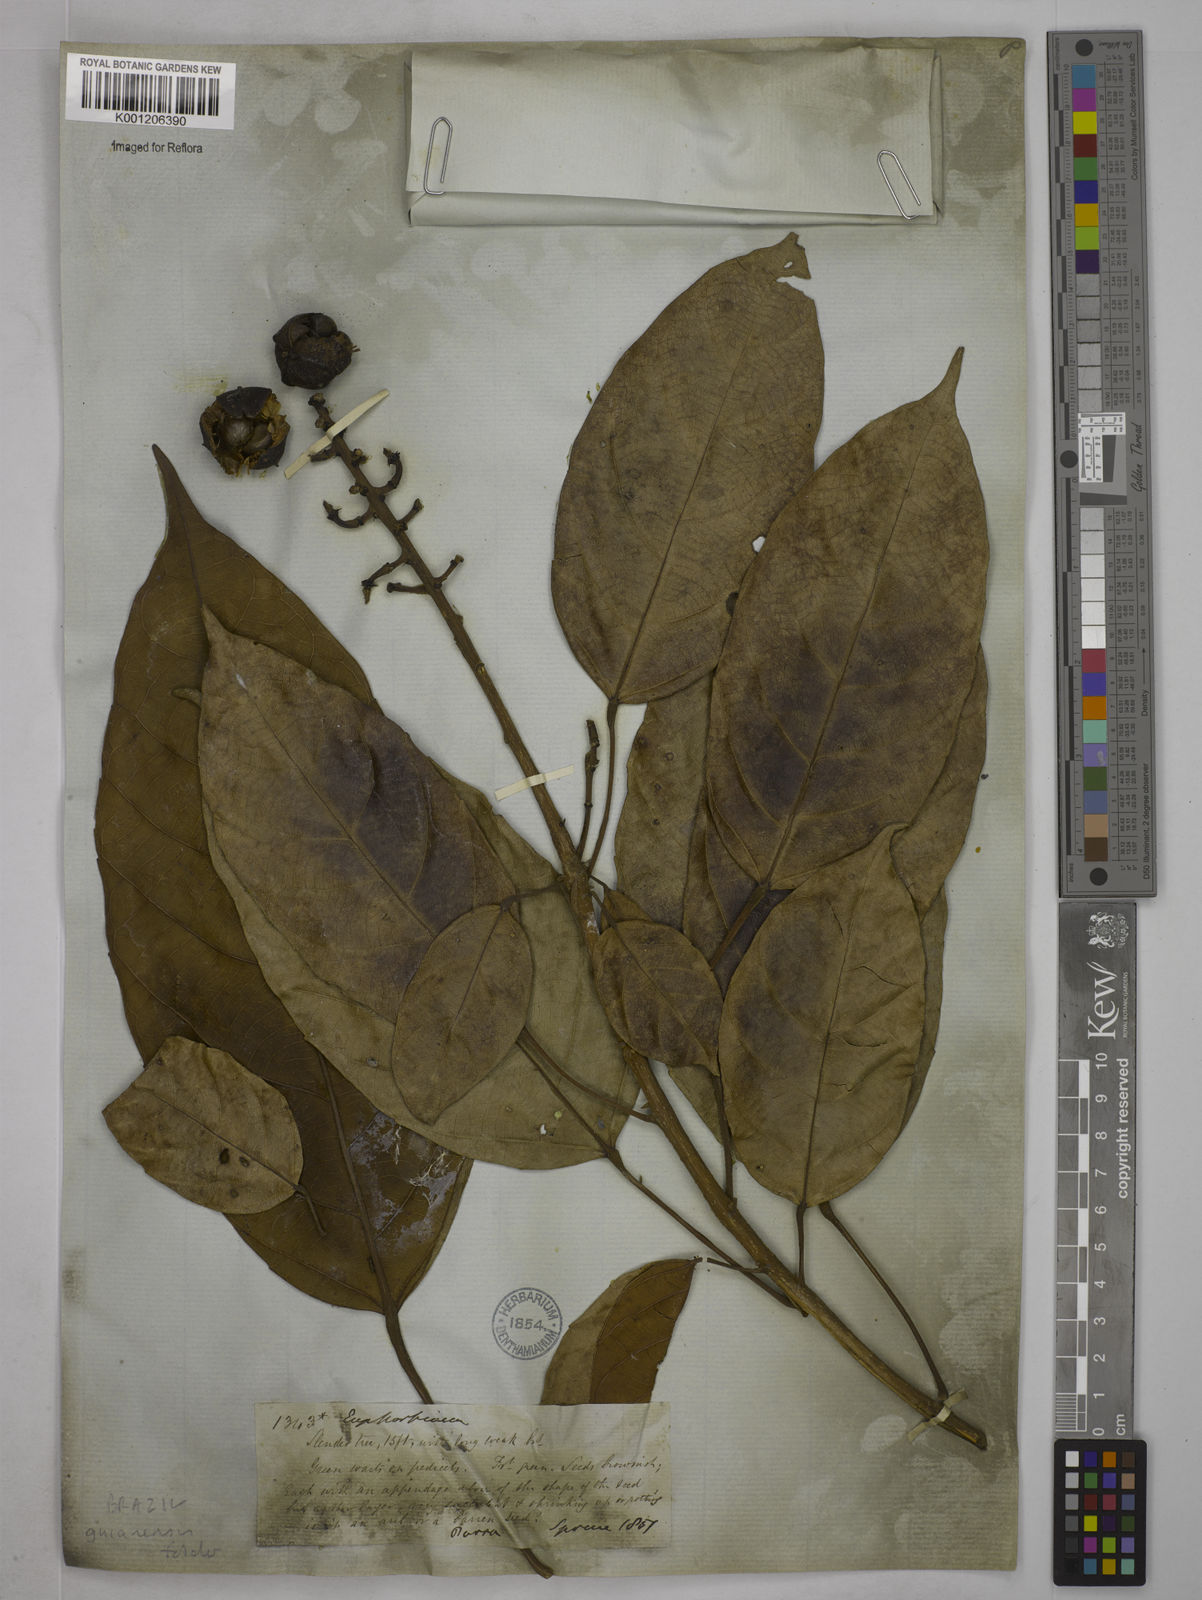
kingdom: Plantae
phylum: Tracheophyta
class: Magnoliopsida
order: Malpighiales
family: Euphorbiaceae
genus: Conceveiba
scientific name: Conceveiba guianensis
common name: Poatoru
